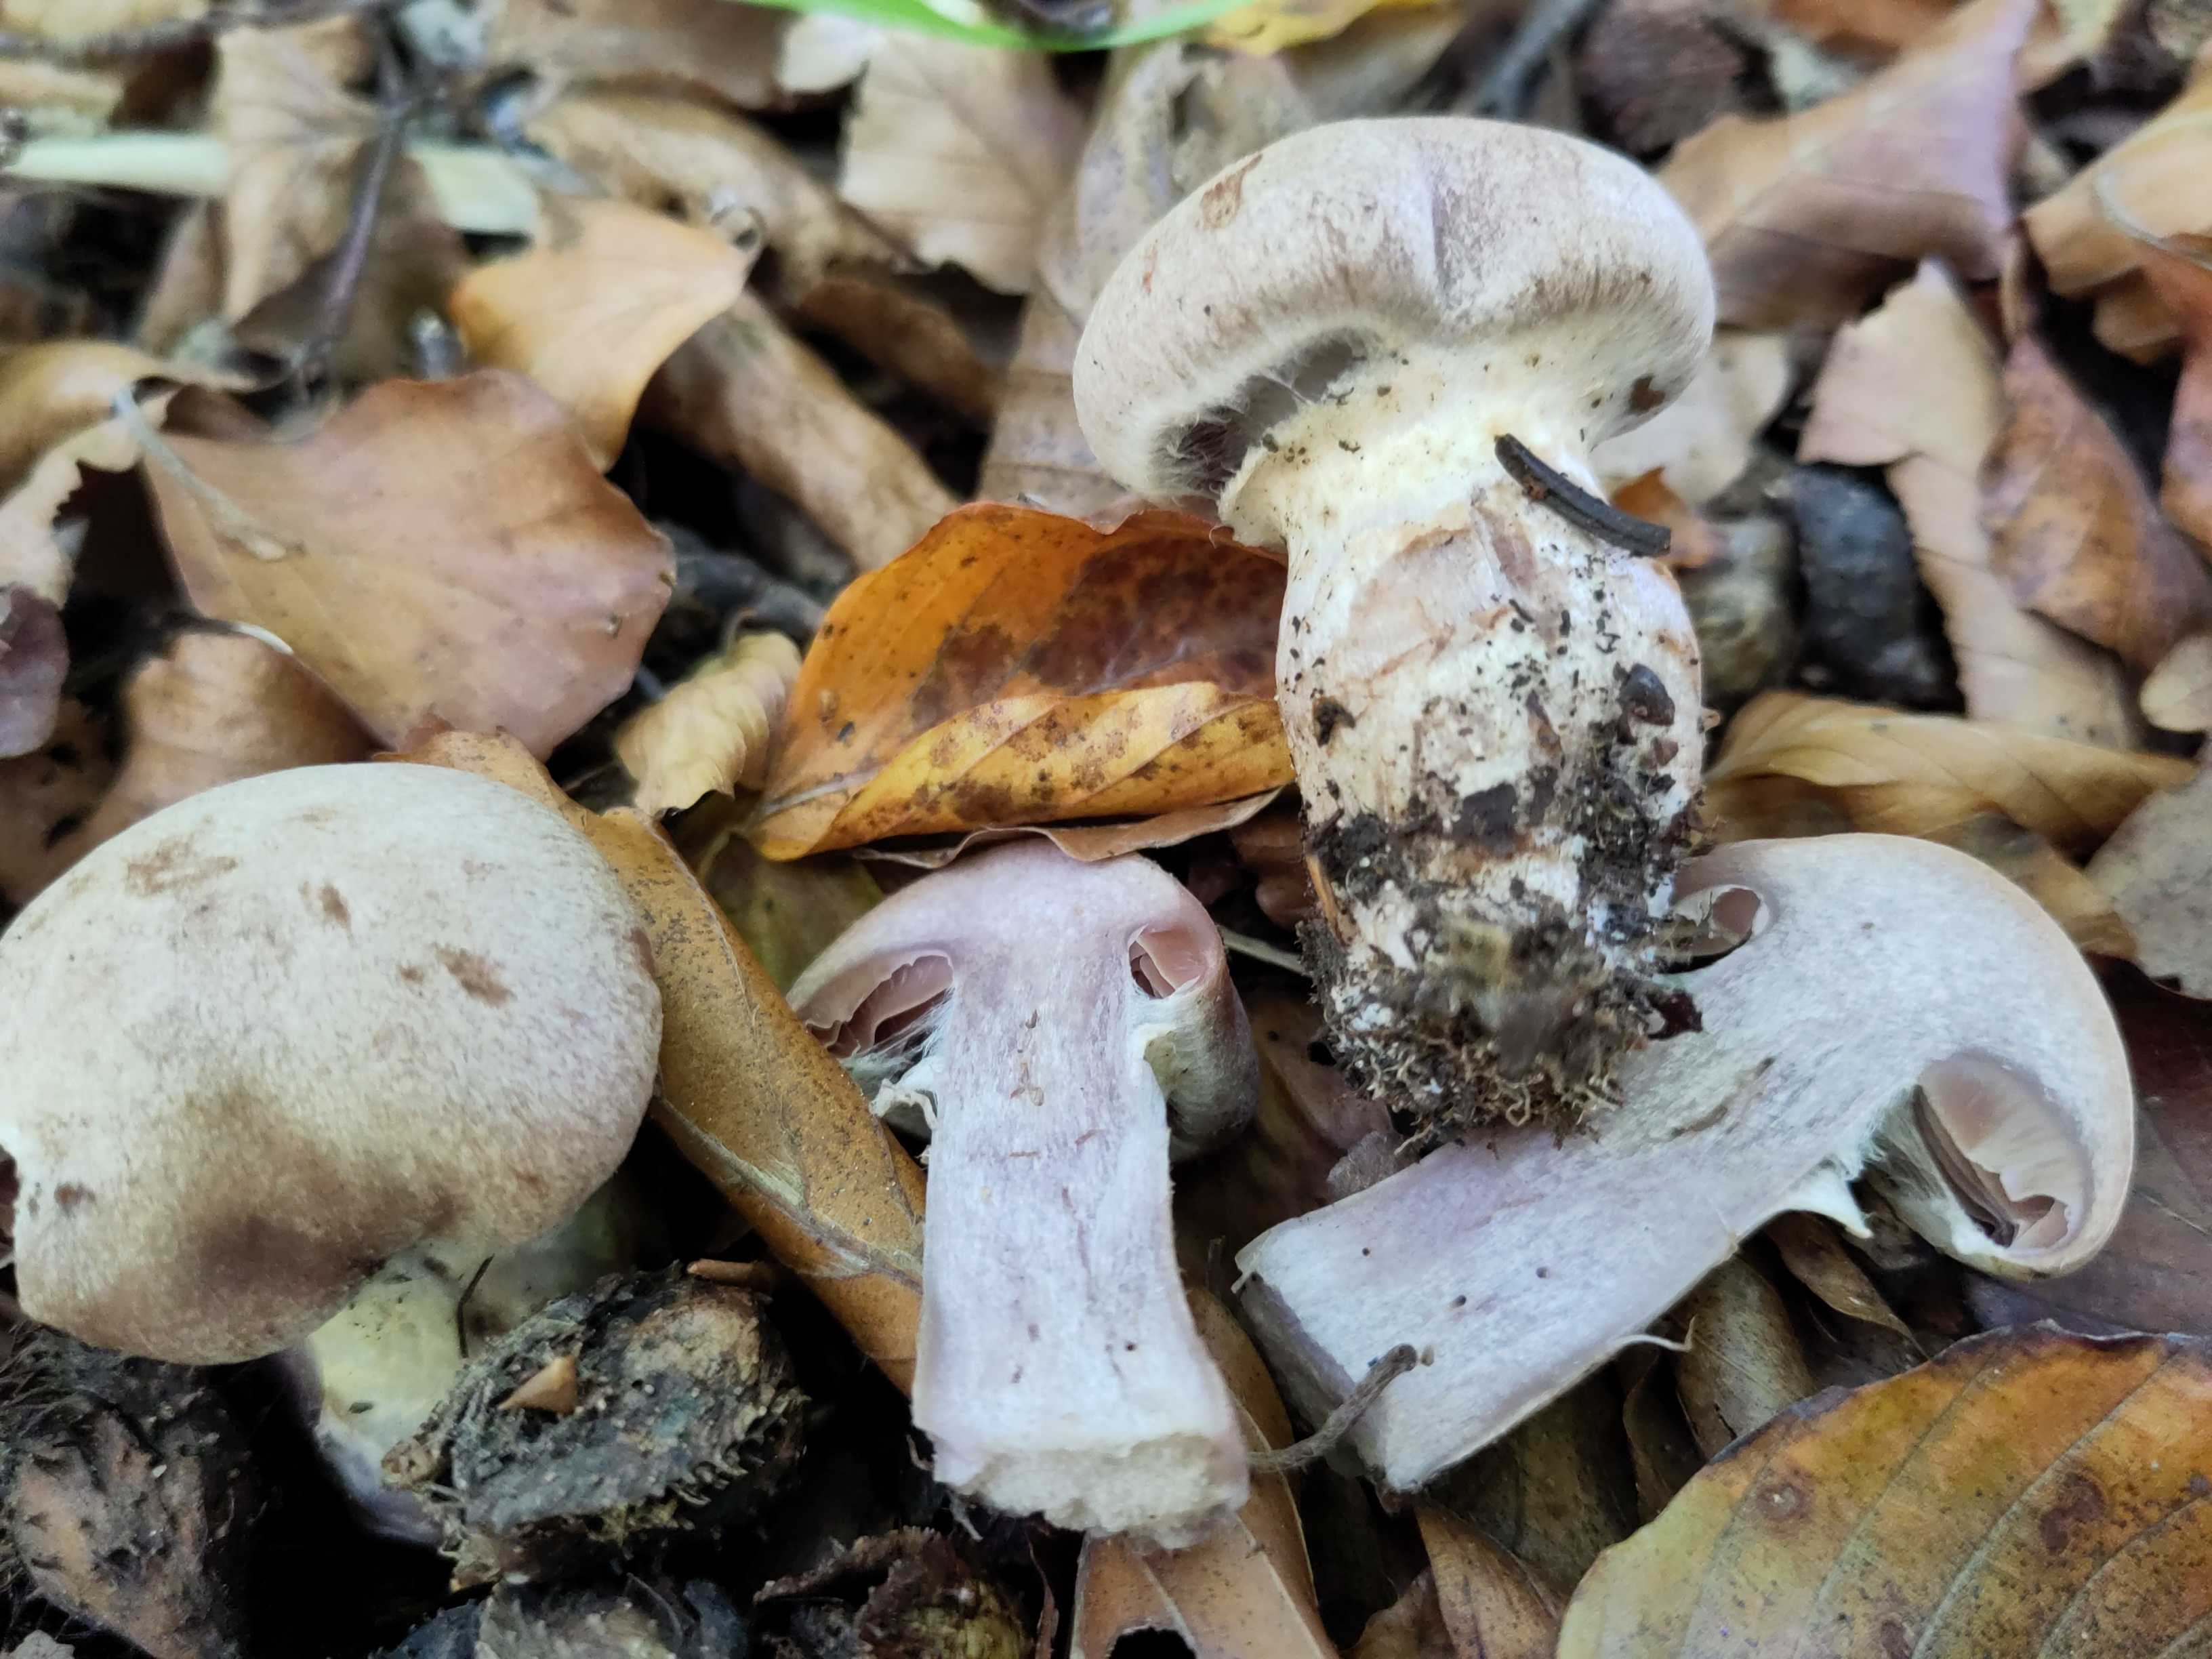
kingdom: Fungi
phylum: Basidiomycota
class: Agaricomycetes
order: Agaricales
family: Cortinariaceae
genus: Cortinarius
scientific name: Cortinarius torvus
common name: champignonagtig slørhat
